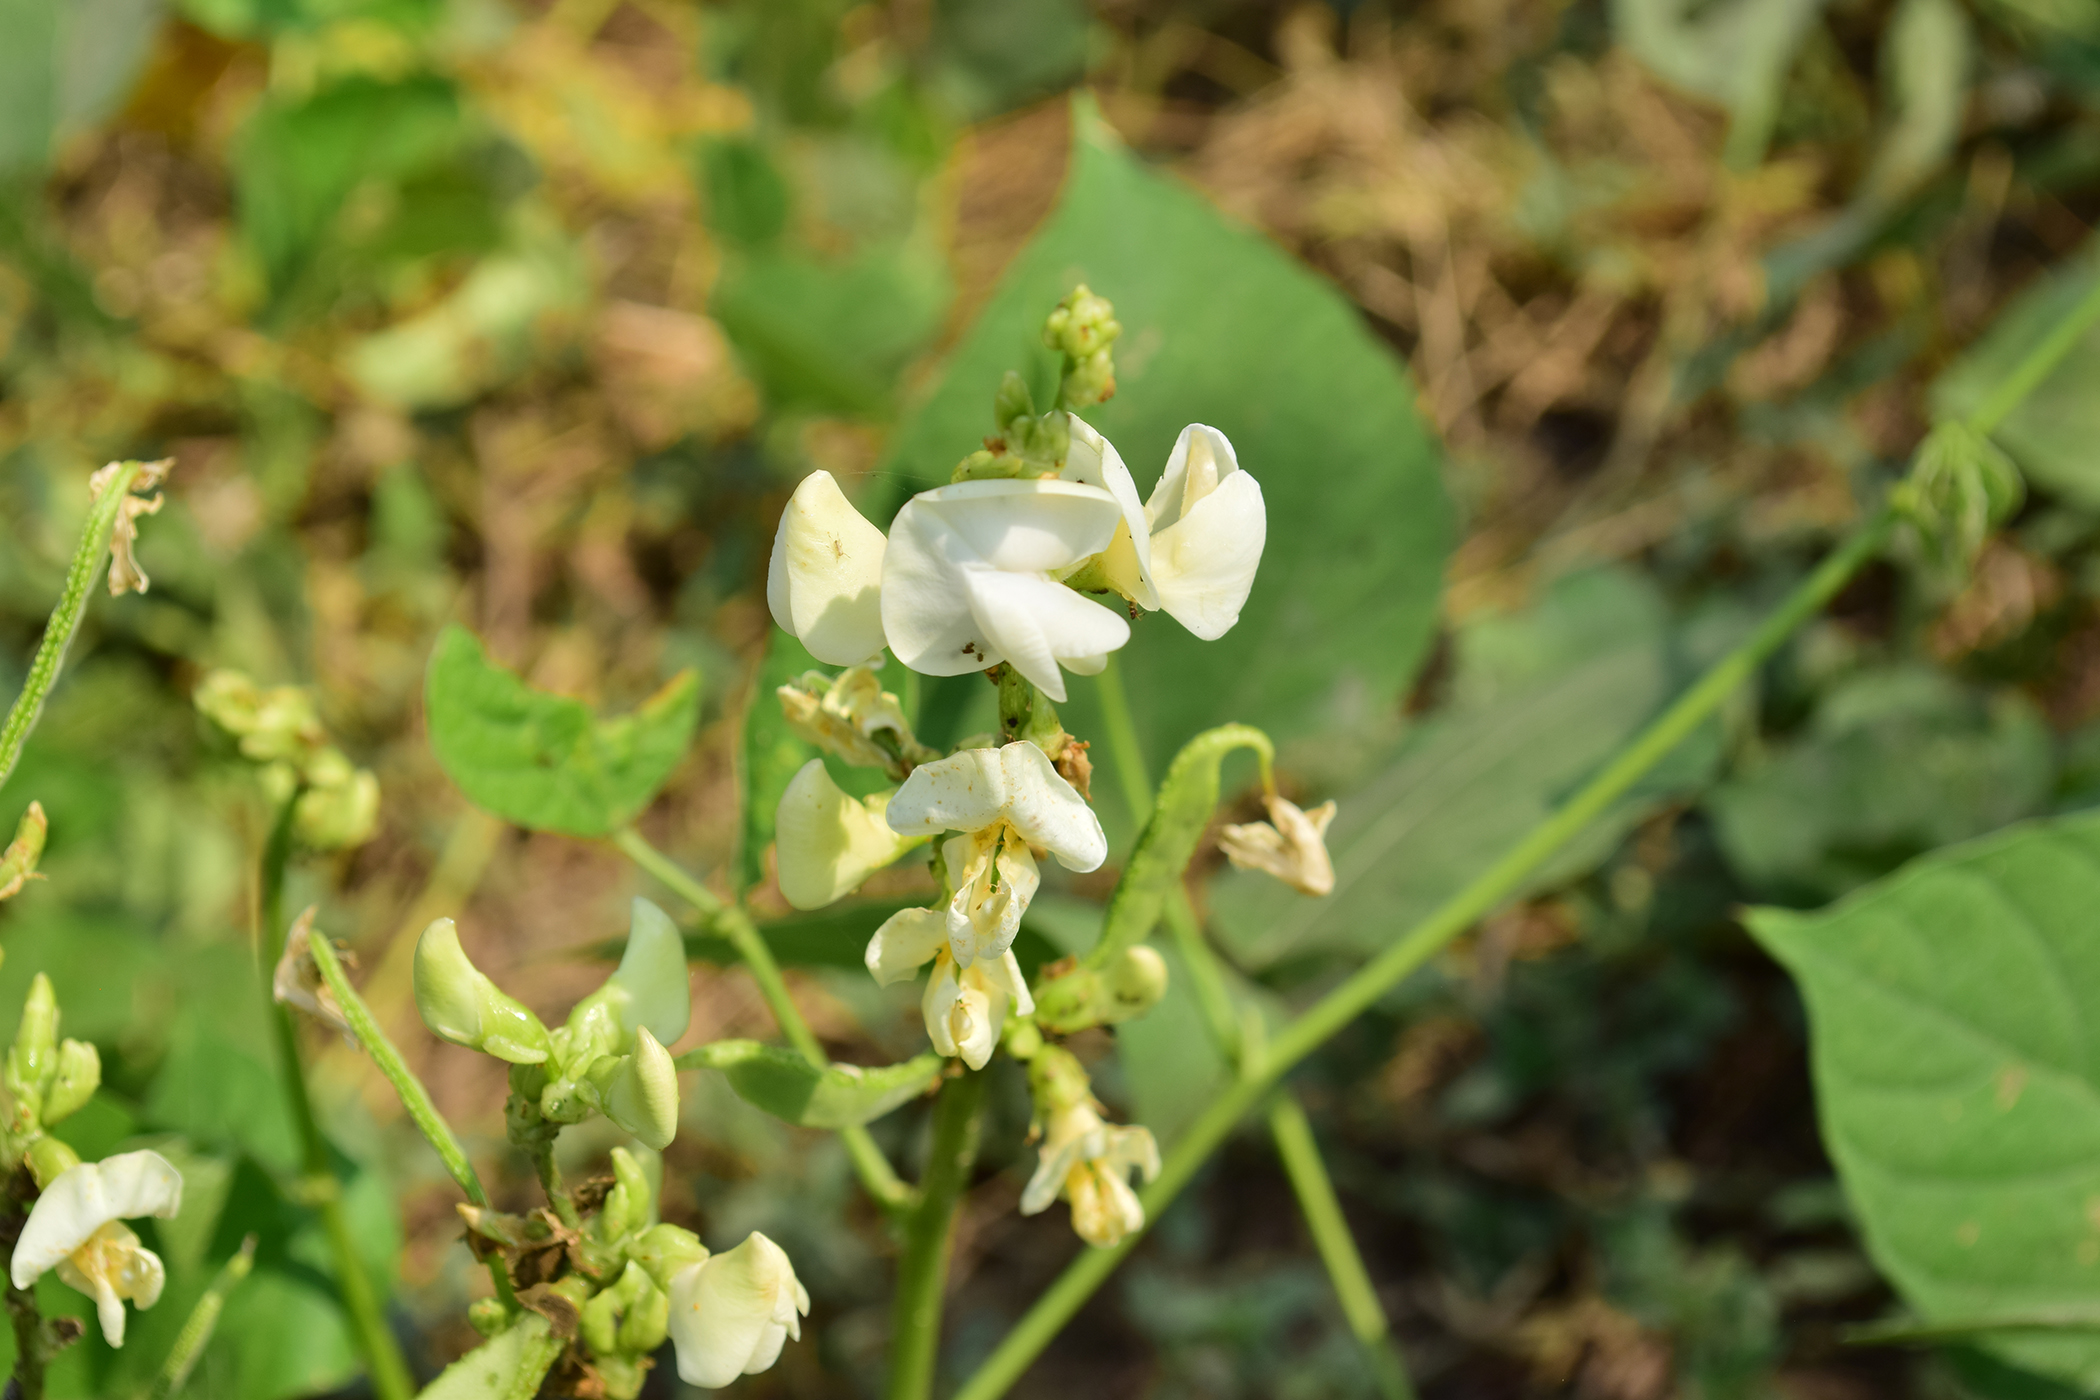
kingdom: Plantae
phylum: Tracheophyta
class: Magnoliopsida
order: Fabales
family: Fabaceae
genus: Lablab
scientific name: Lablab purpureus
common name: Lablab-bean
